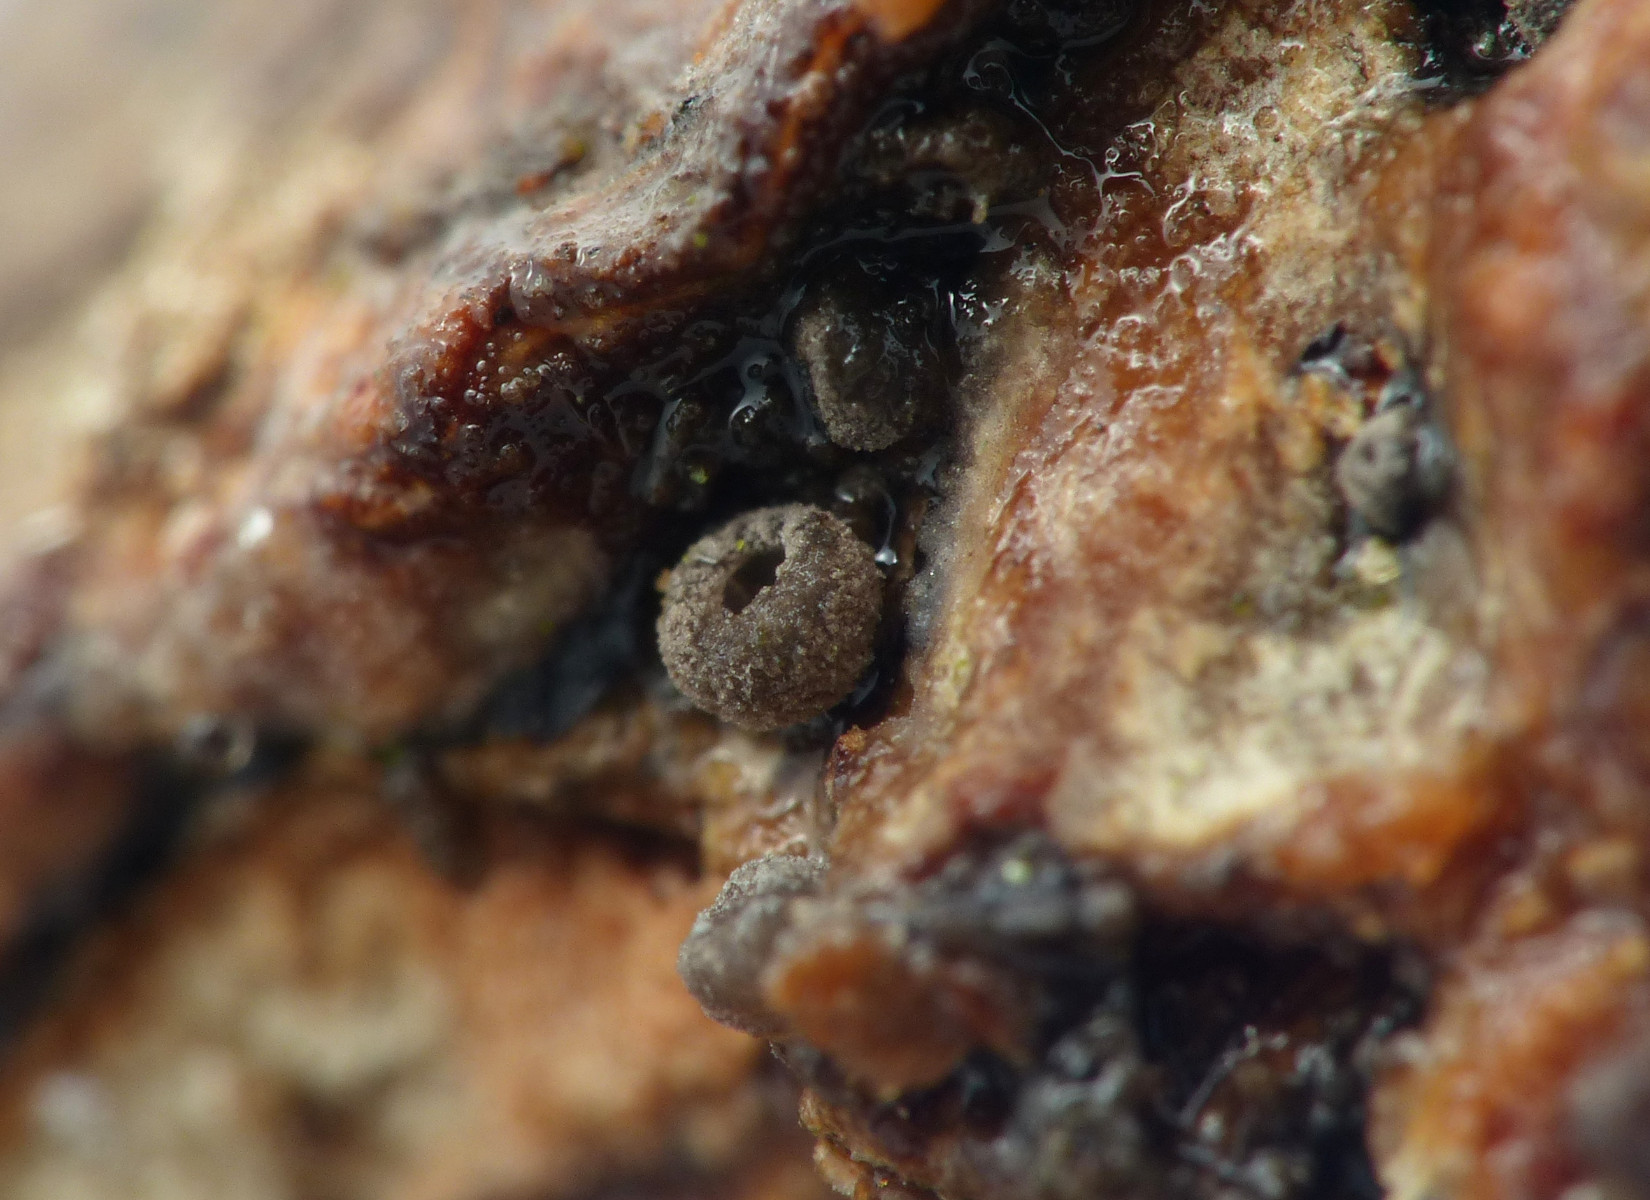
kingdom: Fungi
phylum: Basidiomycota
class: Agaricomycetes
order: Agaricales
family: Pleurotaceae
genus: Resupinatus
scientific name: Resupinatus
